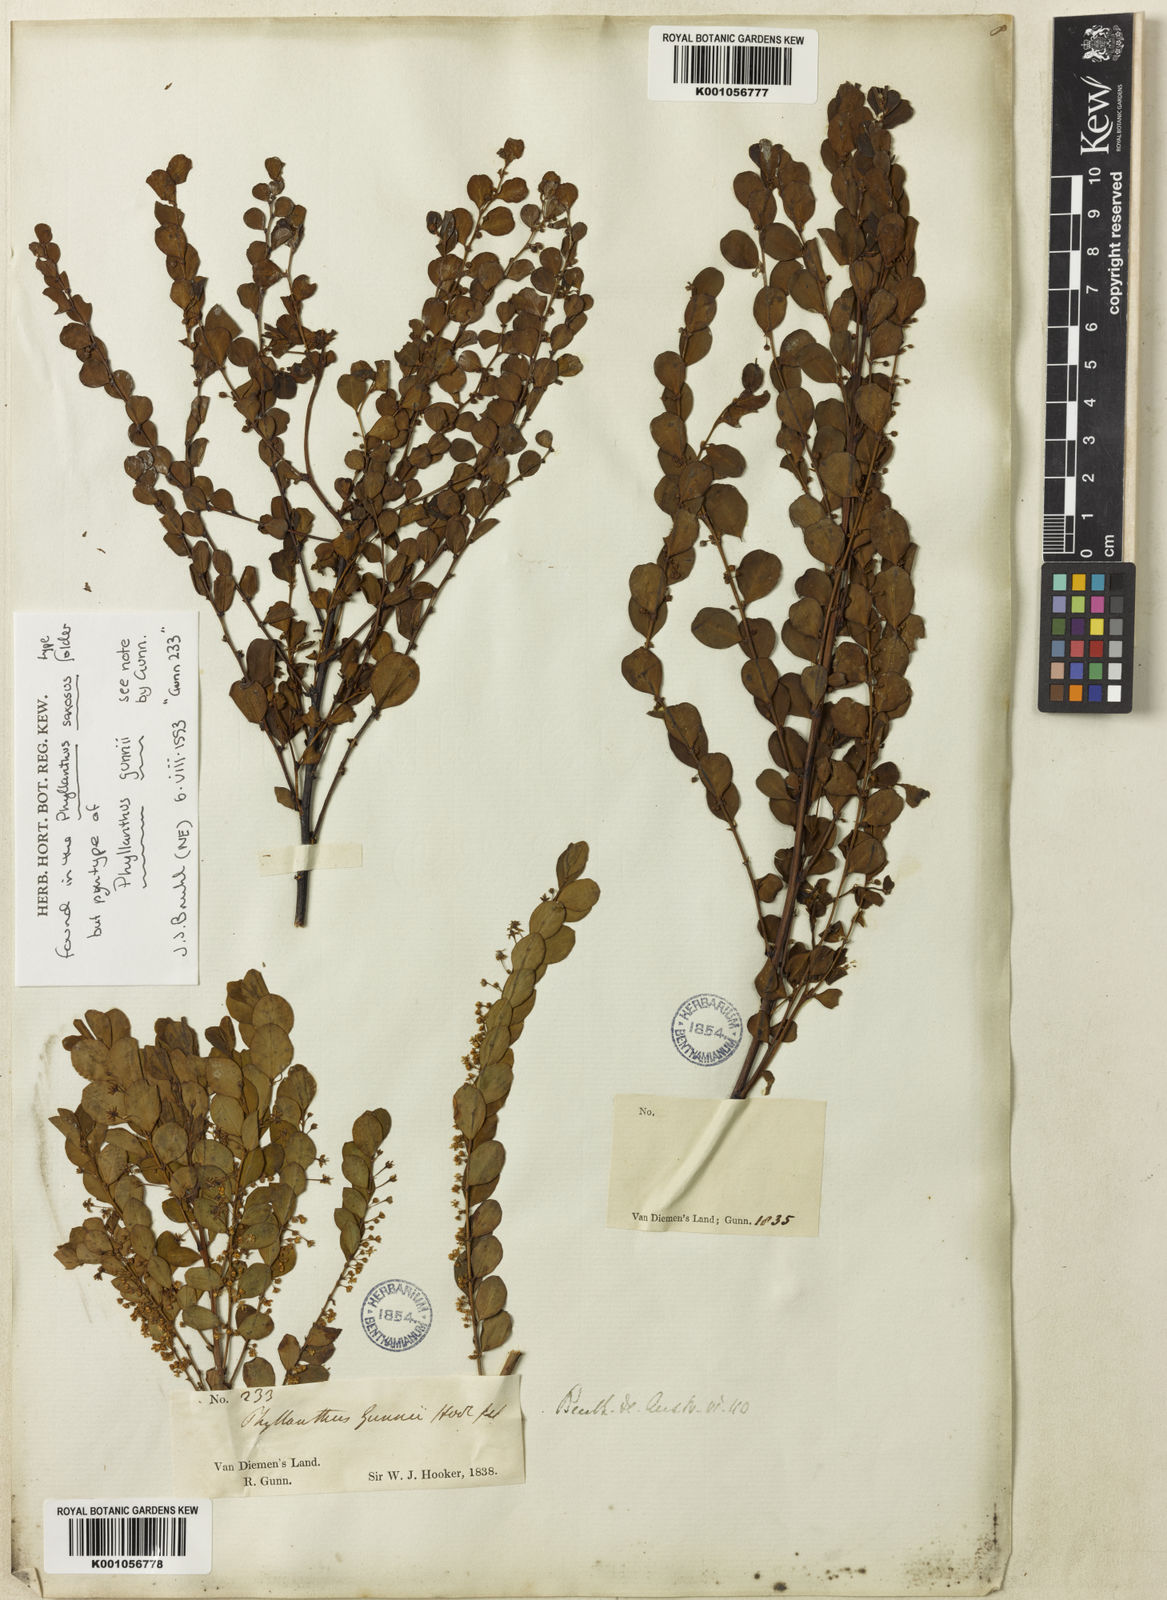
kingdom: Plantae
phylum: Tracheophyta
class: Magnoliopsida
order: Malpighiales
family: Phyllanthaceae
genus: Phyllanthus
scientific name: Phyllanthus gunnii
